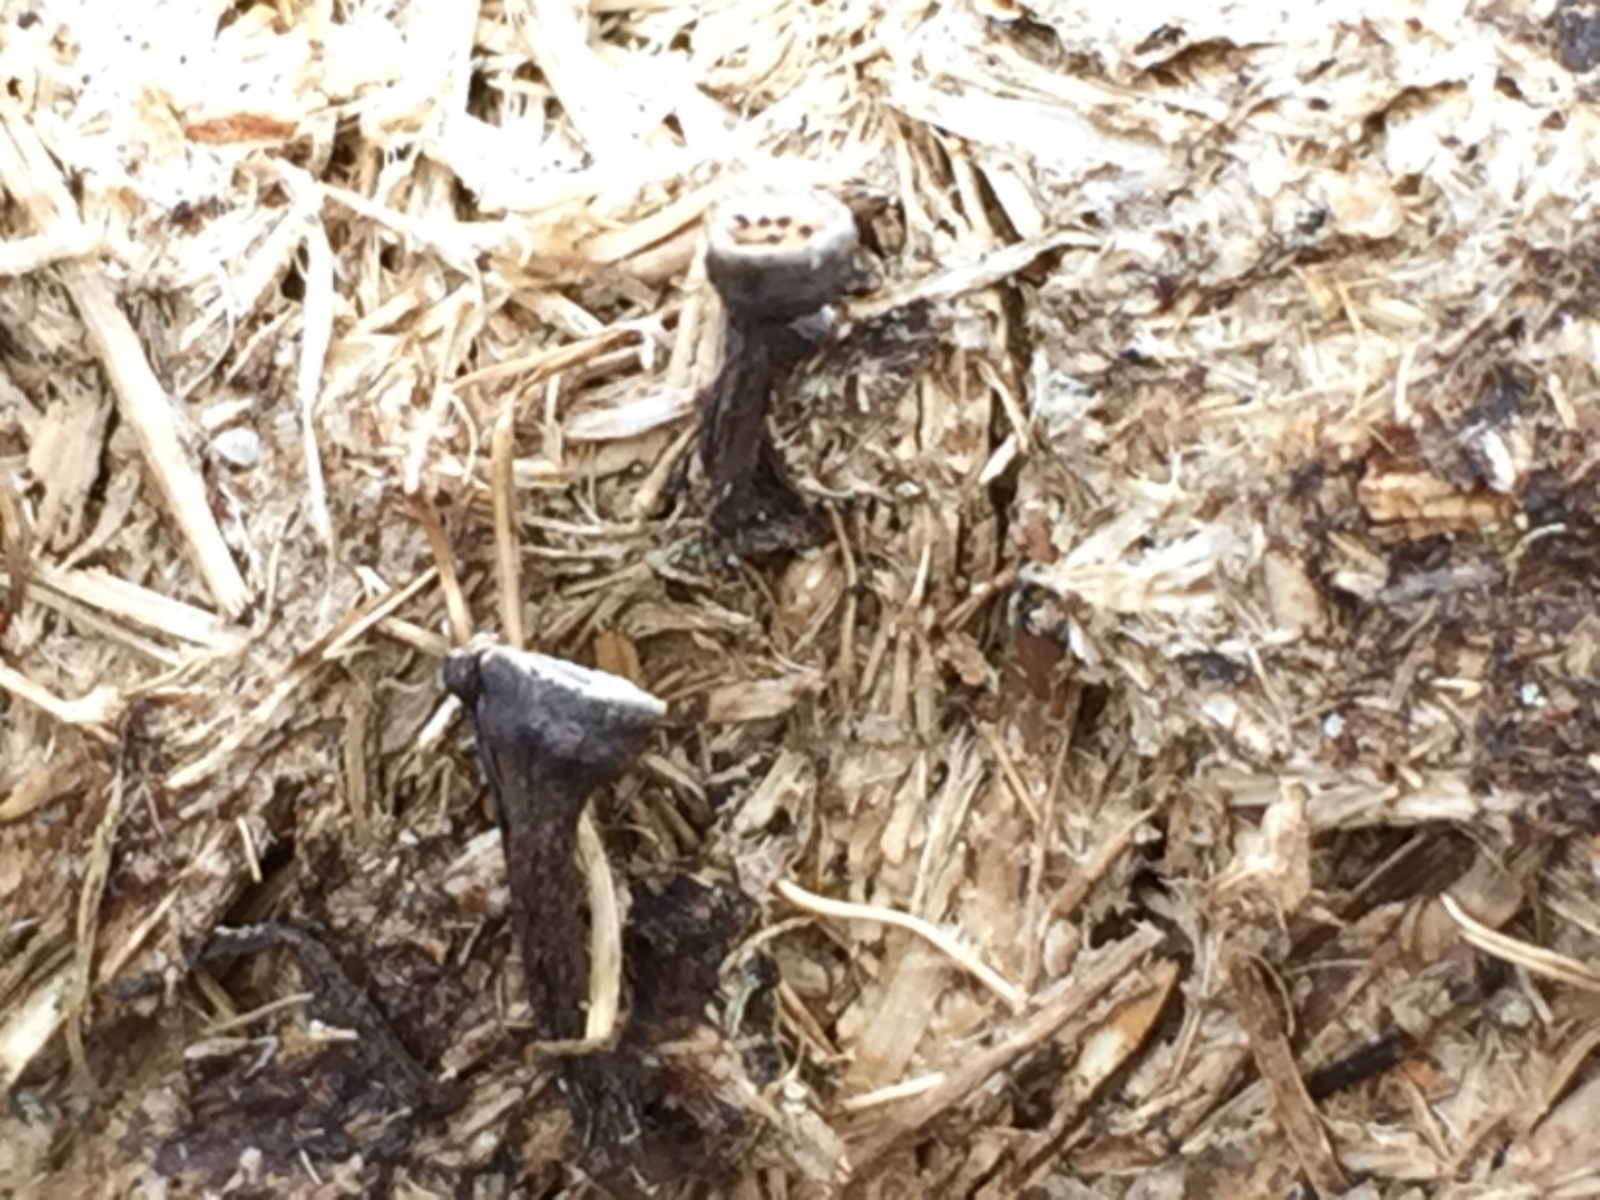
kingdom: Fungi
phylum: Ascomycota
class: Sordariomycetes
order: Xylariales
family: Xylariaceae
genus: Poronia
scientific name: Poronia punctata
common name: stor priksvamp
